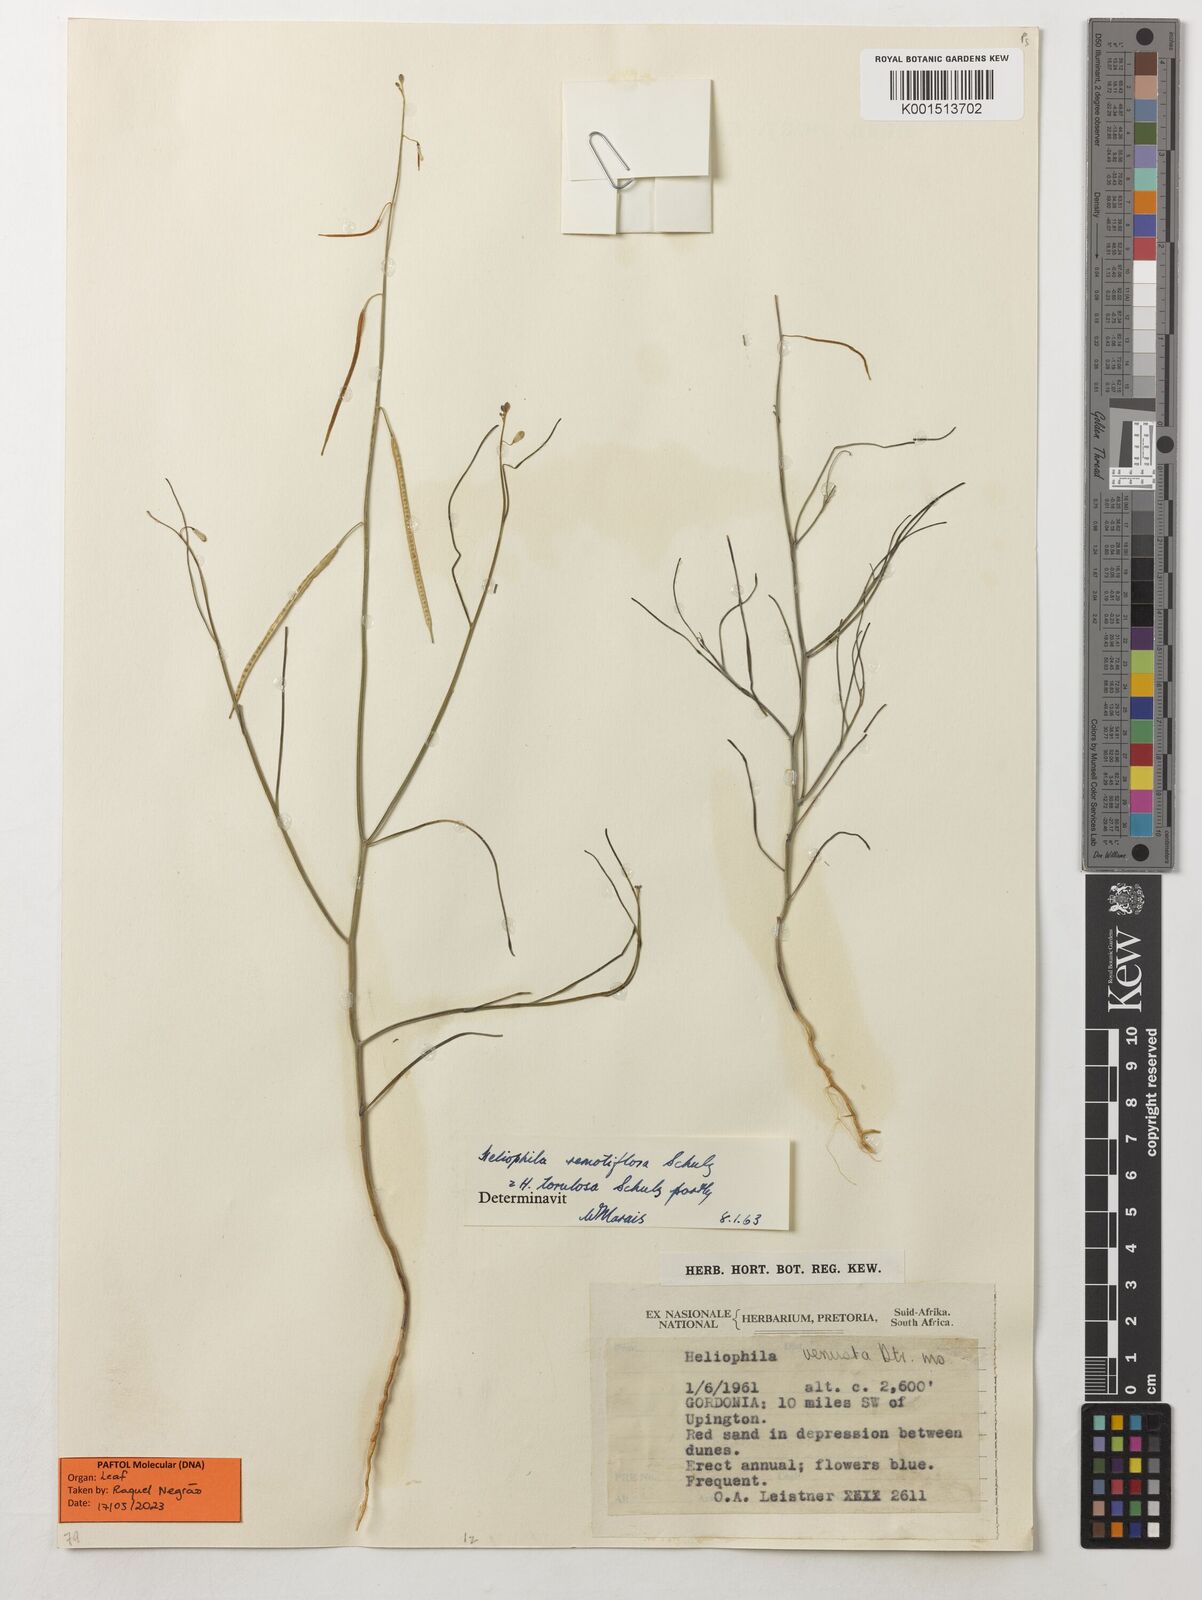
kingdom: Plantae
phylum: Tracheophyta
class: Magnoliopsida
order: Brassicales
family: Brassicaceae
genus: Heliophila
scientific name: Heliophila remotiflora
